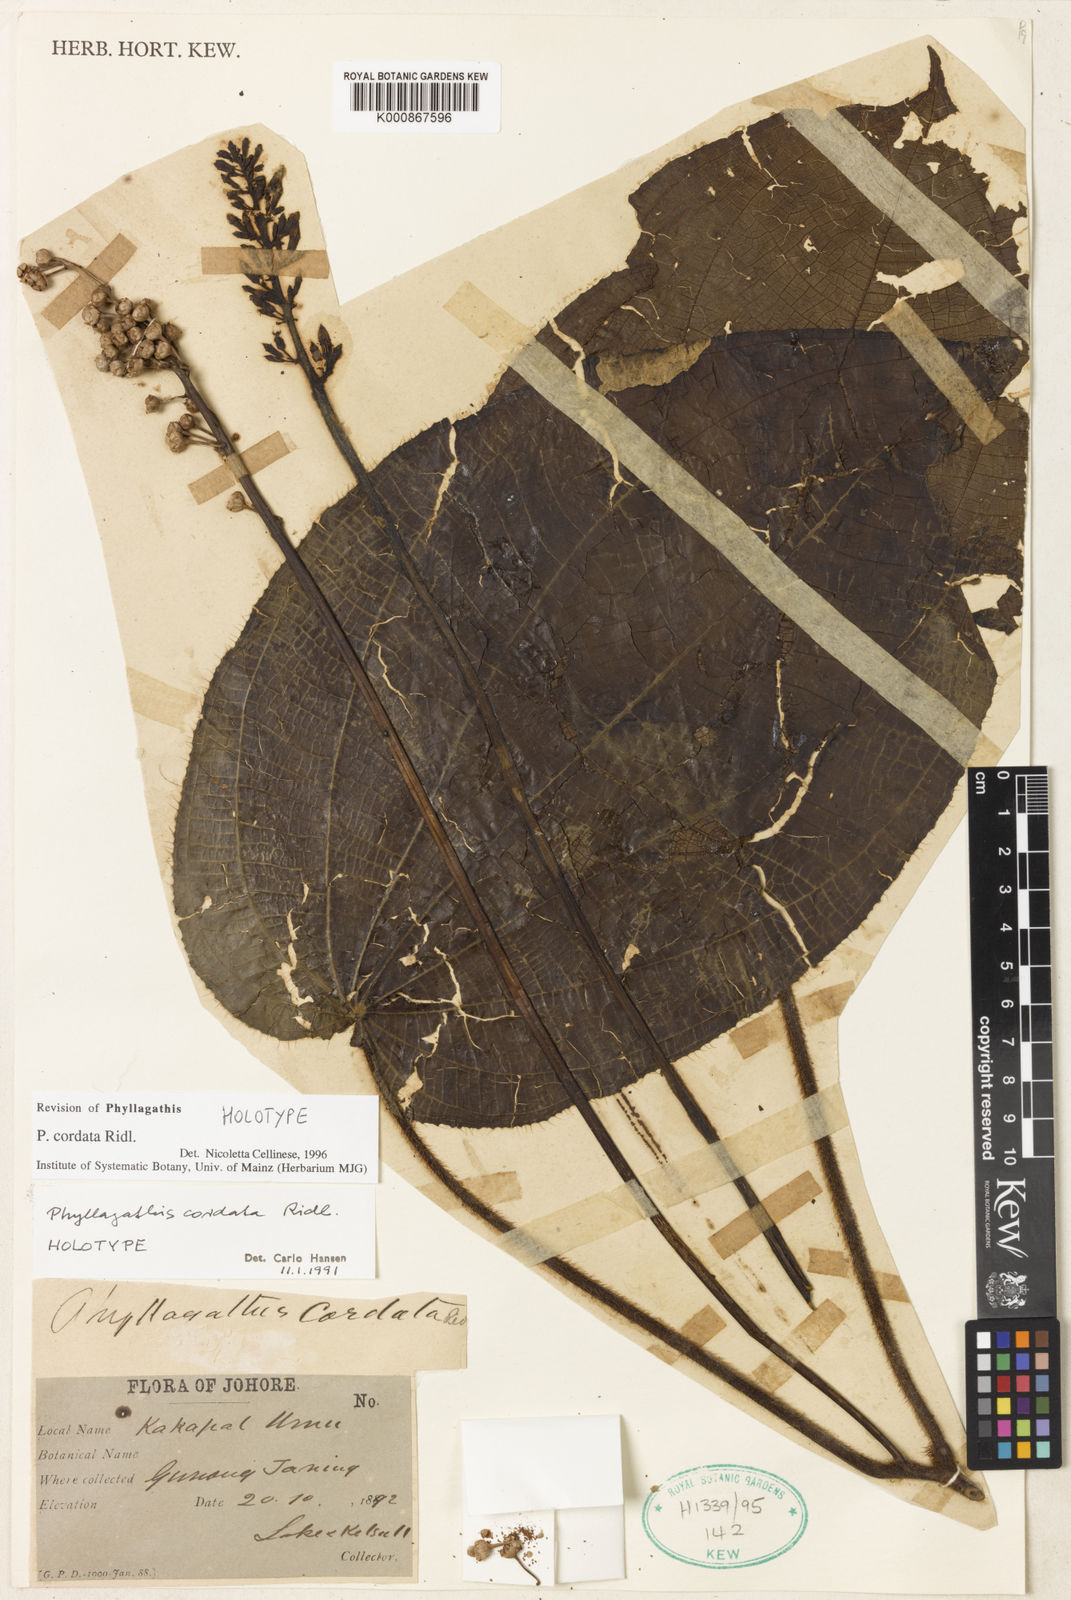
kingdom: Plantae
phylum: Tracheophyta
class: Magnoliopsida
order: Myrtales
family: Melastomataceae
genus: Phyllagathis
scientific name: Phyllagathis cordata
